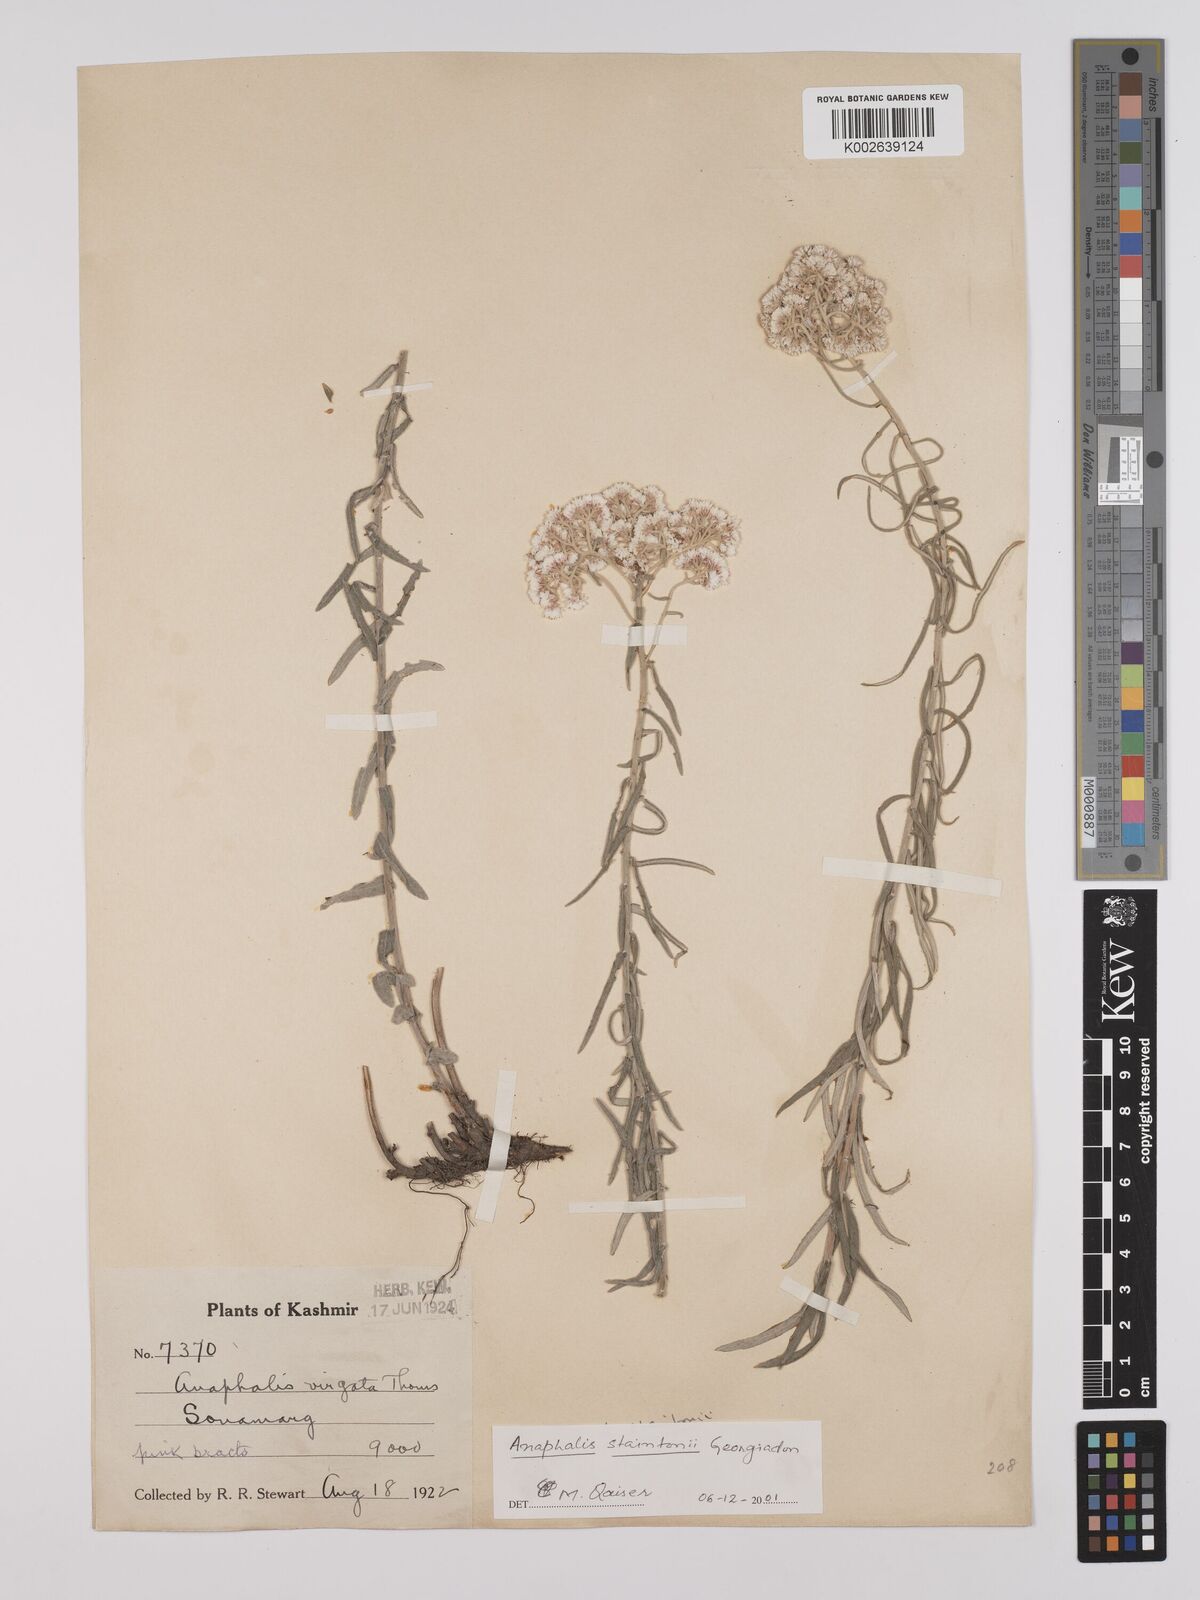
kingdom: Plantae
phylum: Tracheophyta
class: Magnoliopsida
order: Asterales
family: Asteraceae
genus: Anaphalis
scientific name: Anaphalis contorta
